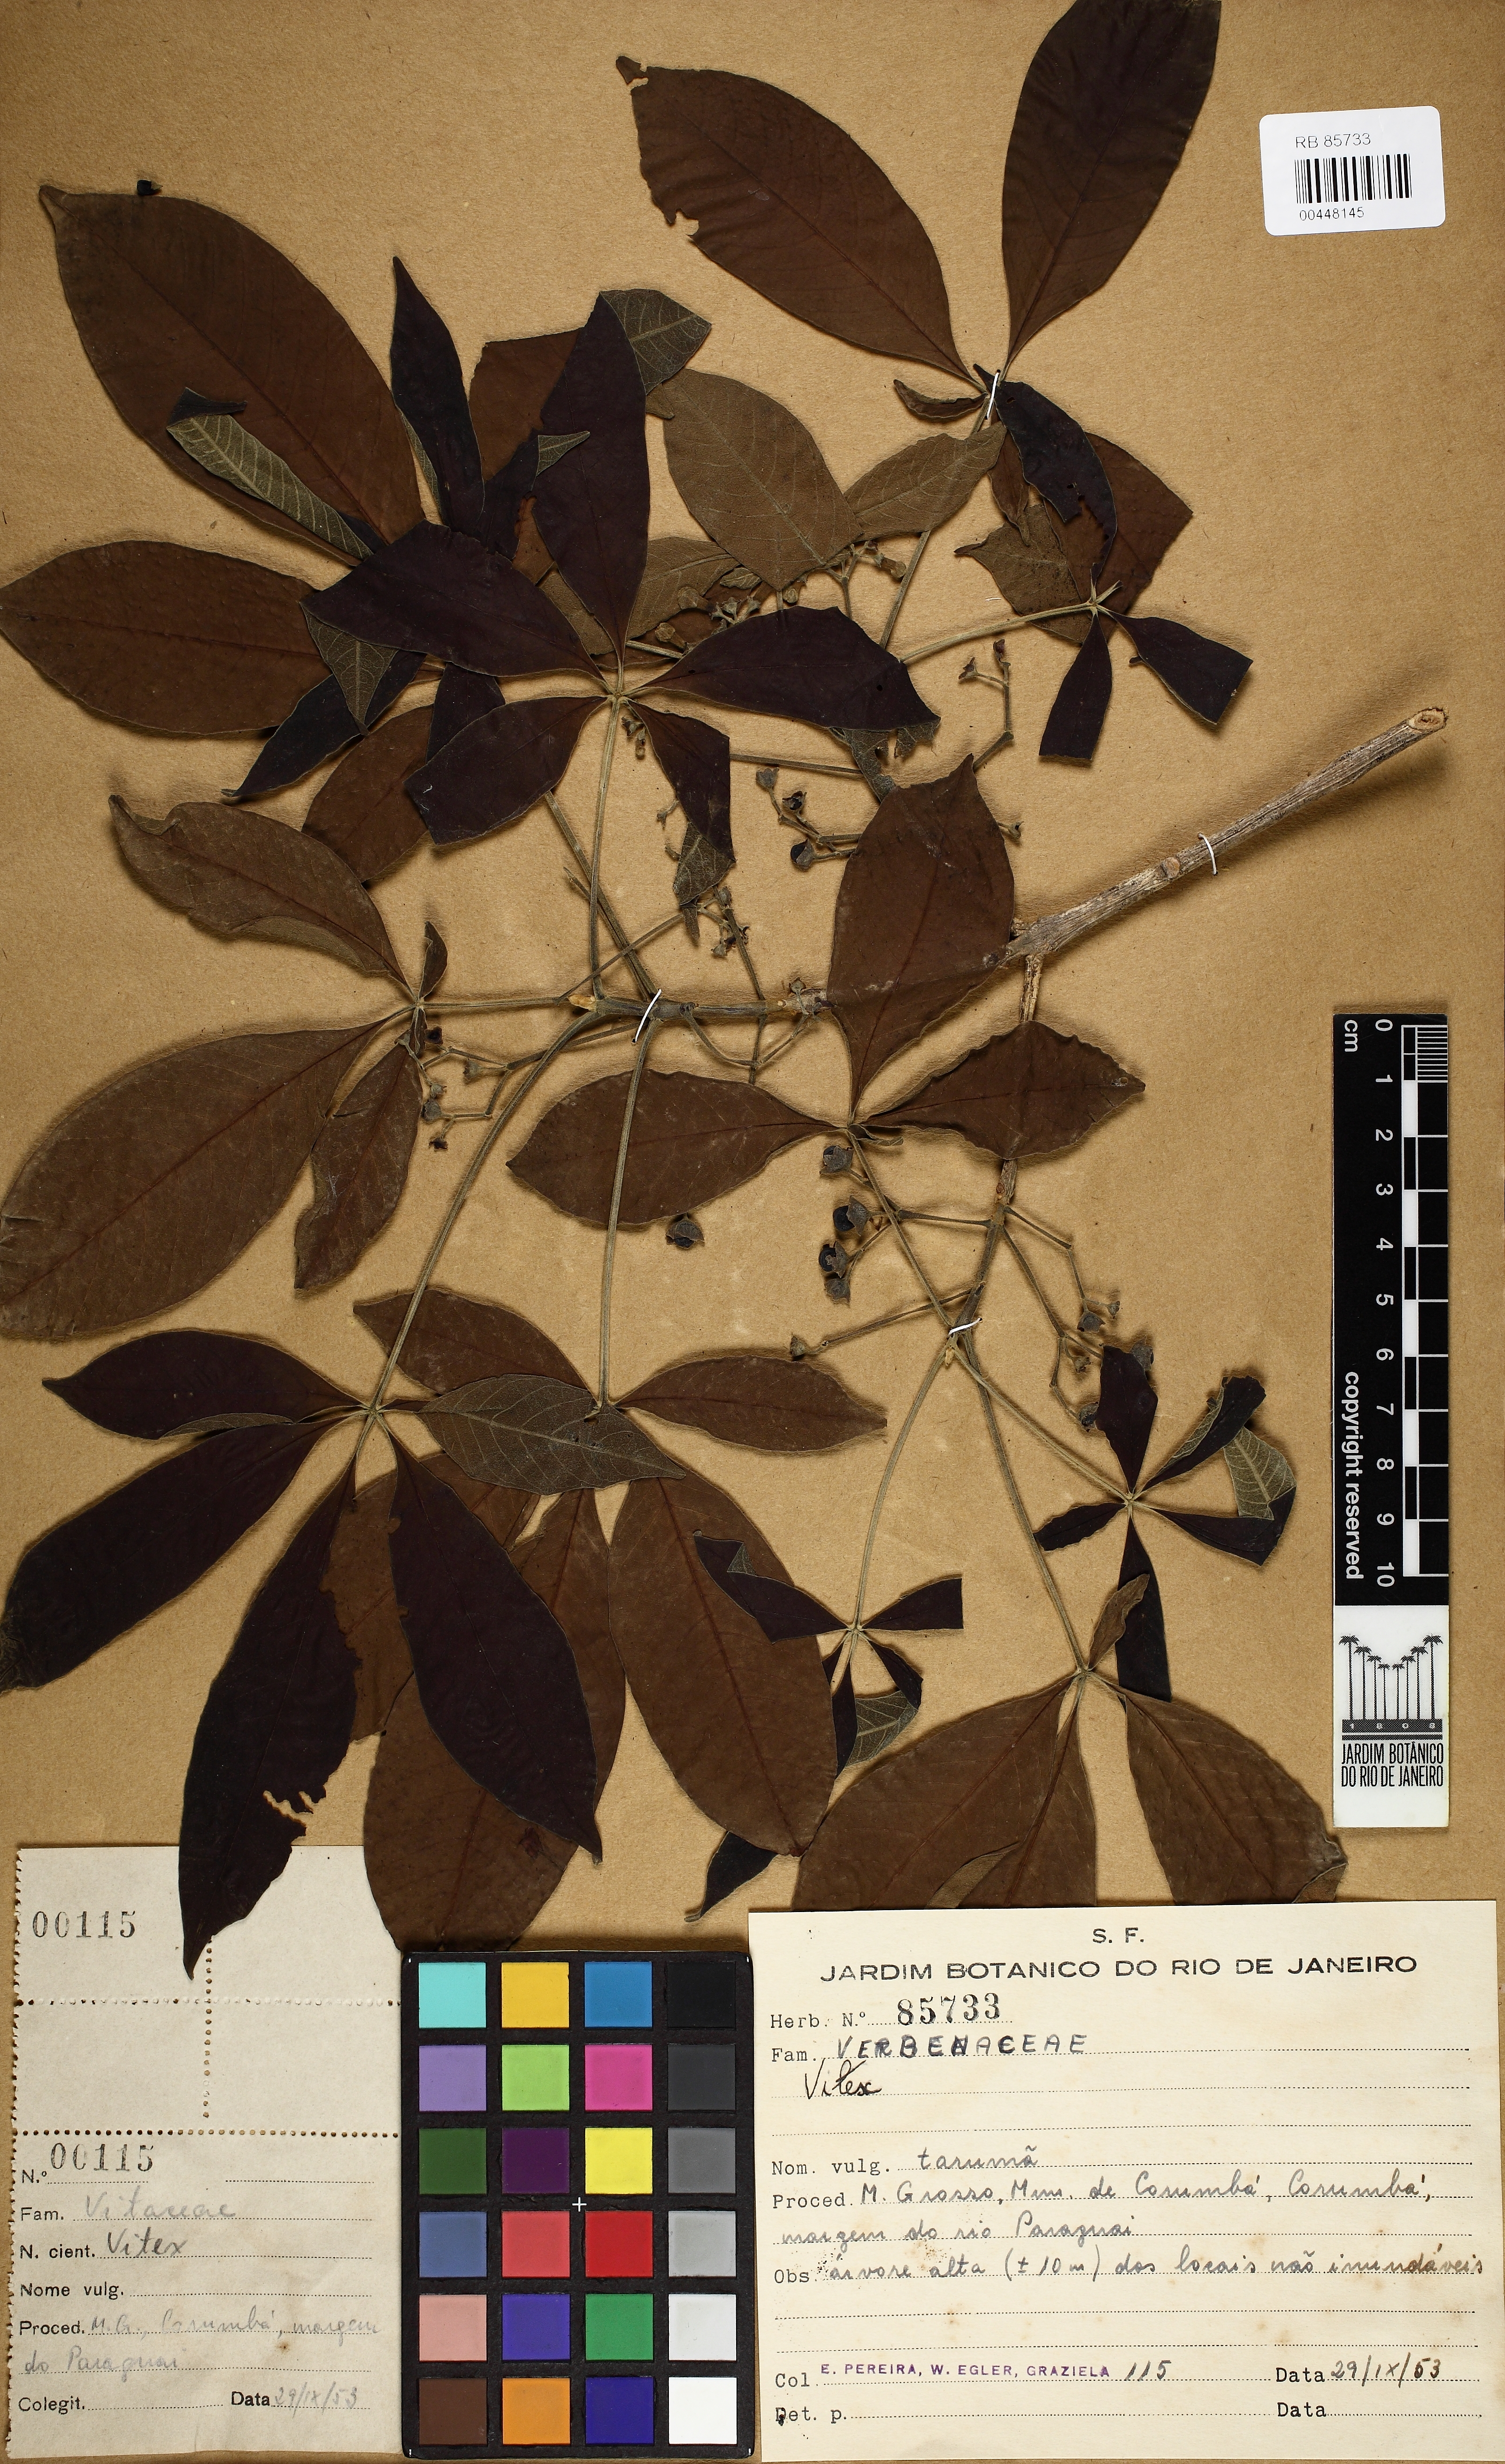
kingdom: Plantae
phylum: Tracheophyta
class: Magnoliopsida
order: Lamiales
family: Lamiaceae
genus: Vitex
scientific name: Vitex
